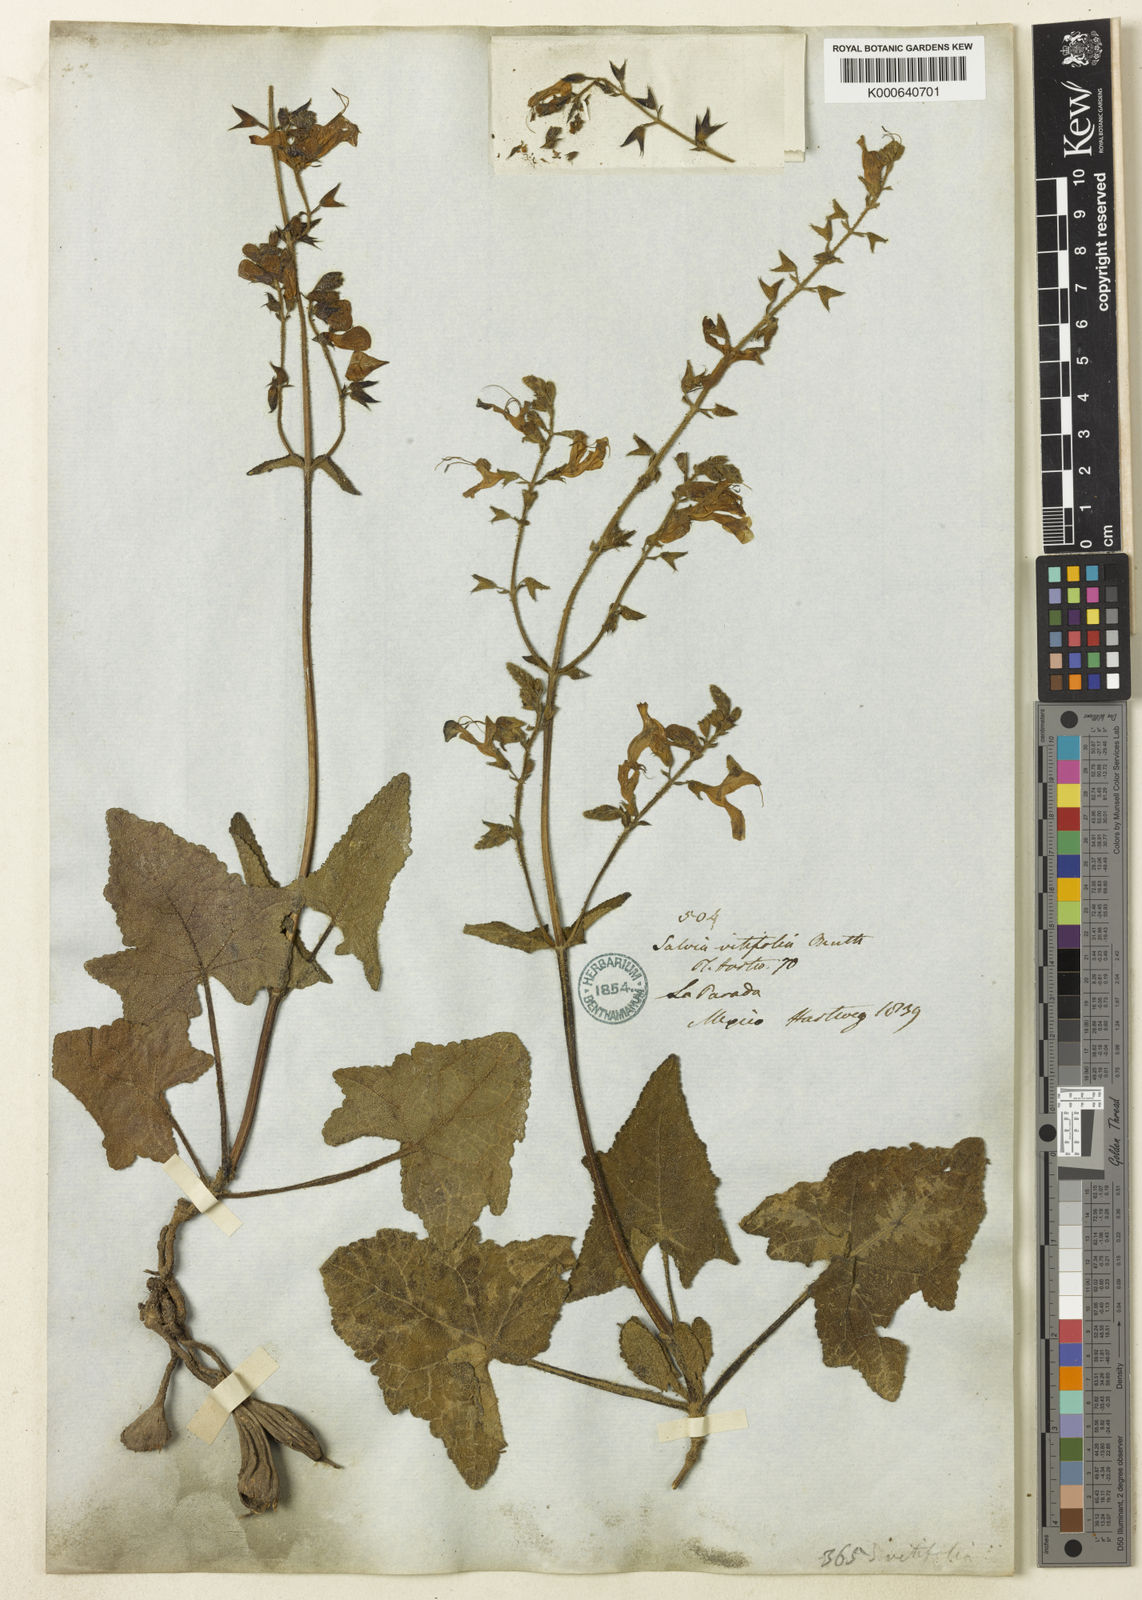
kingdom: Plantae
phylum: Tracheophyta
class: Magnoliopsida
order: Lamiales
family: Lamiaceae
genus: Salvia
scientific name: Salvia vitifolia
